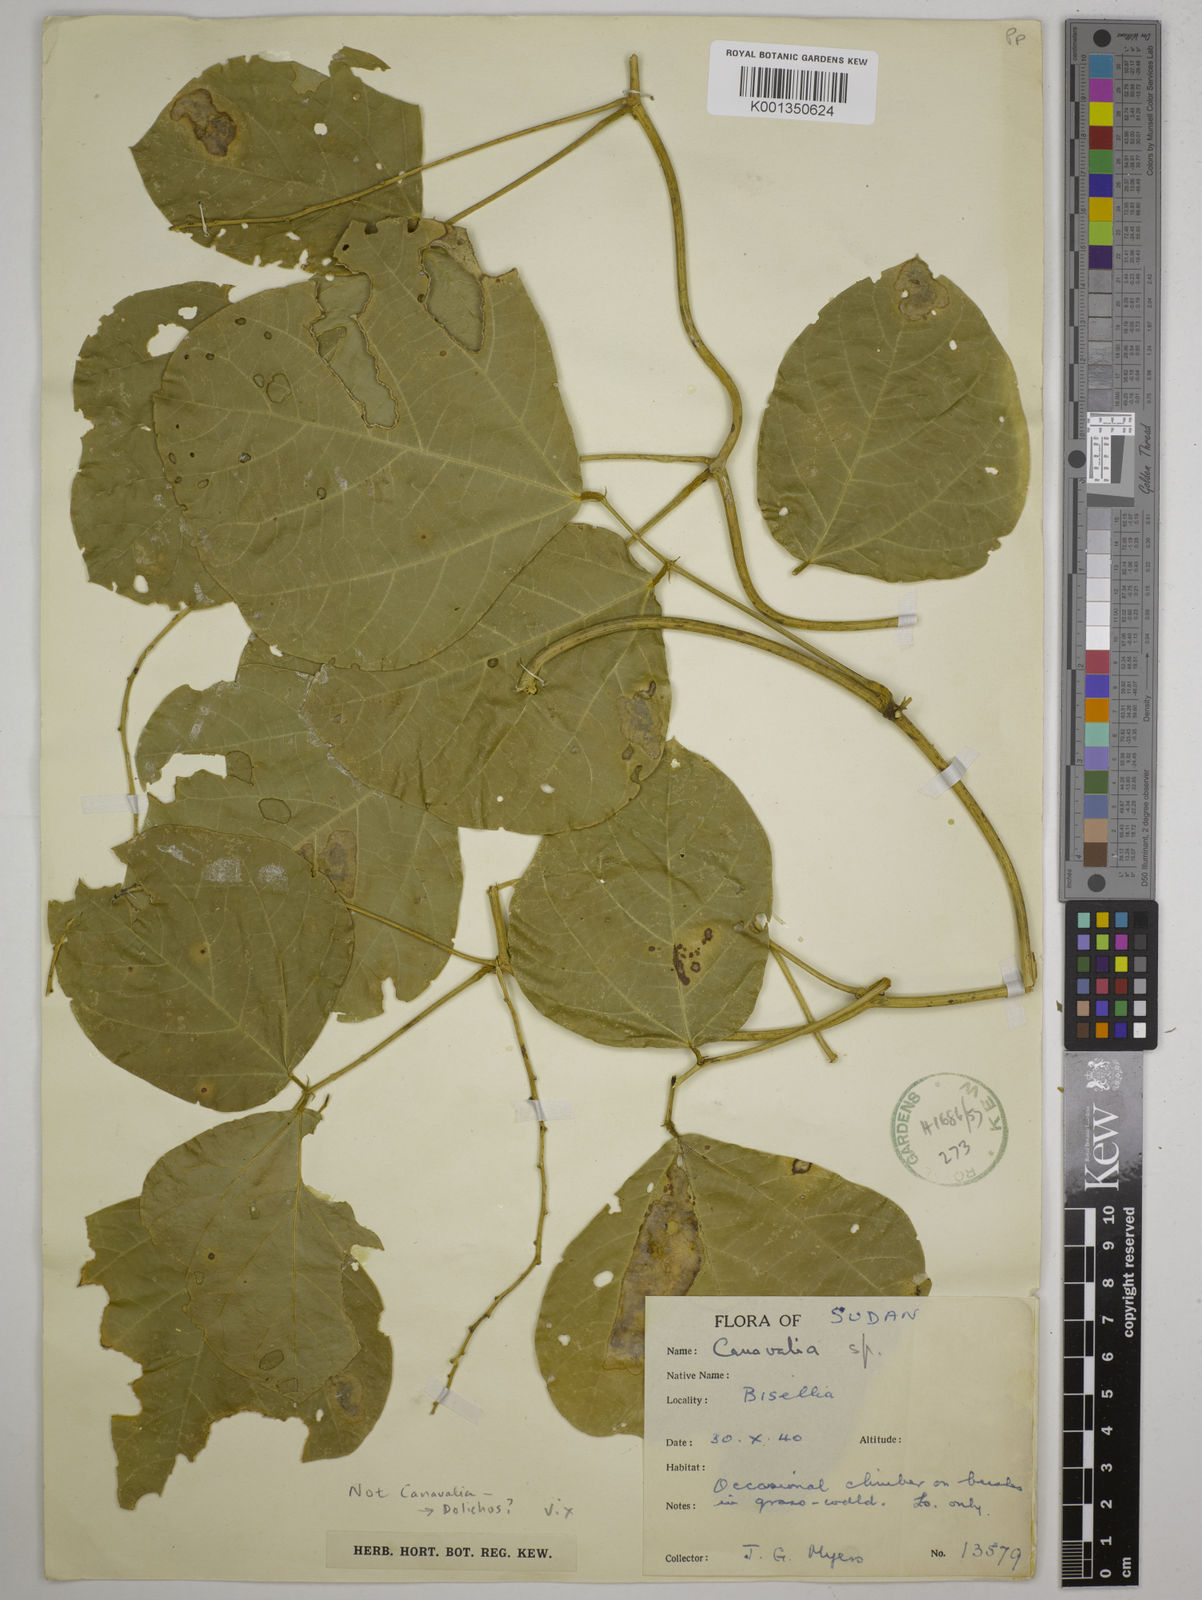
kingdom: Plantae
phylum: Tracheophyta
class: Magnoliopsida
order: Fabales
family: Fabaceae
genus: Dolichos
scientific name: Dolichos
